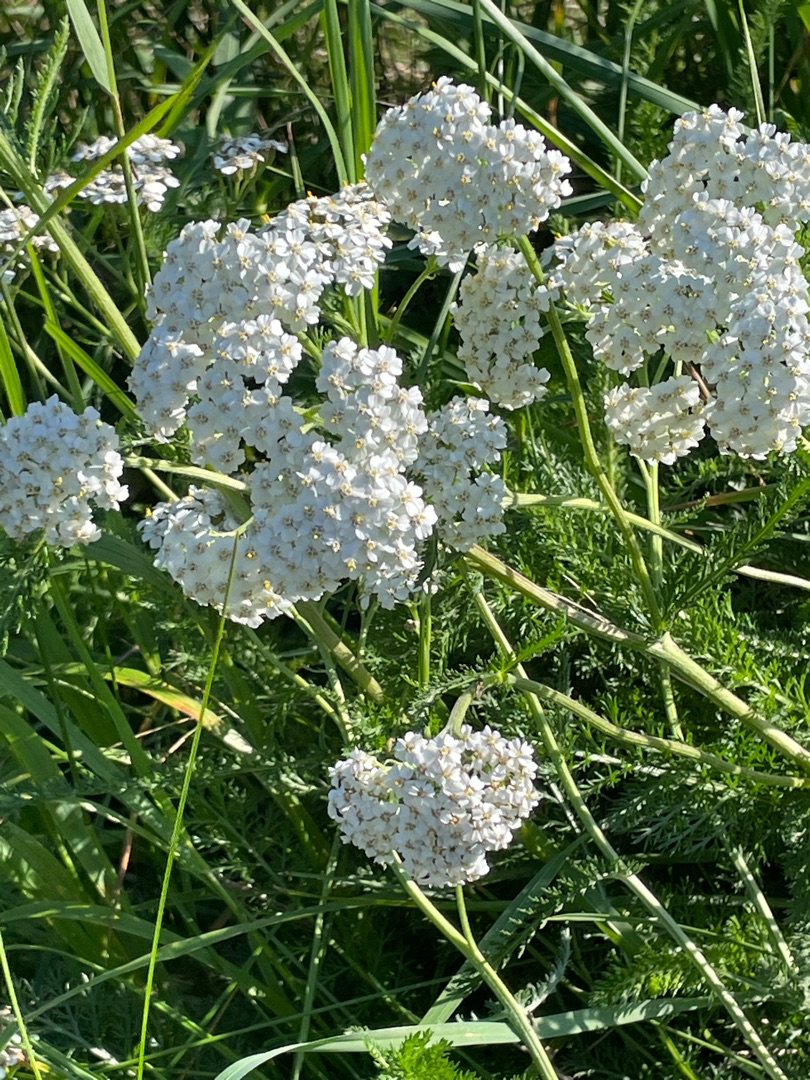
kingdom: Plantae
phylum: Tracheophyta
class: Magnoliopsida
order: Asterales
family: Asteraceae
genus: Achillea
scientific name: Achillea millefolium
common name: Almindelig røllike
